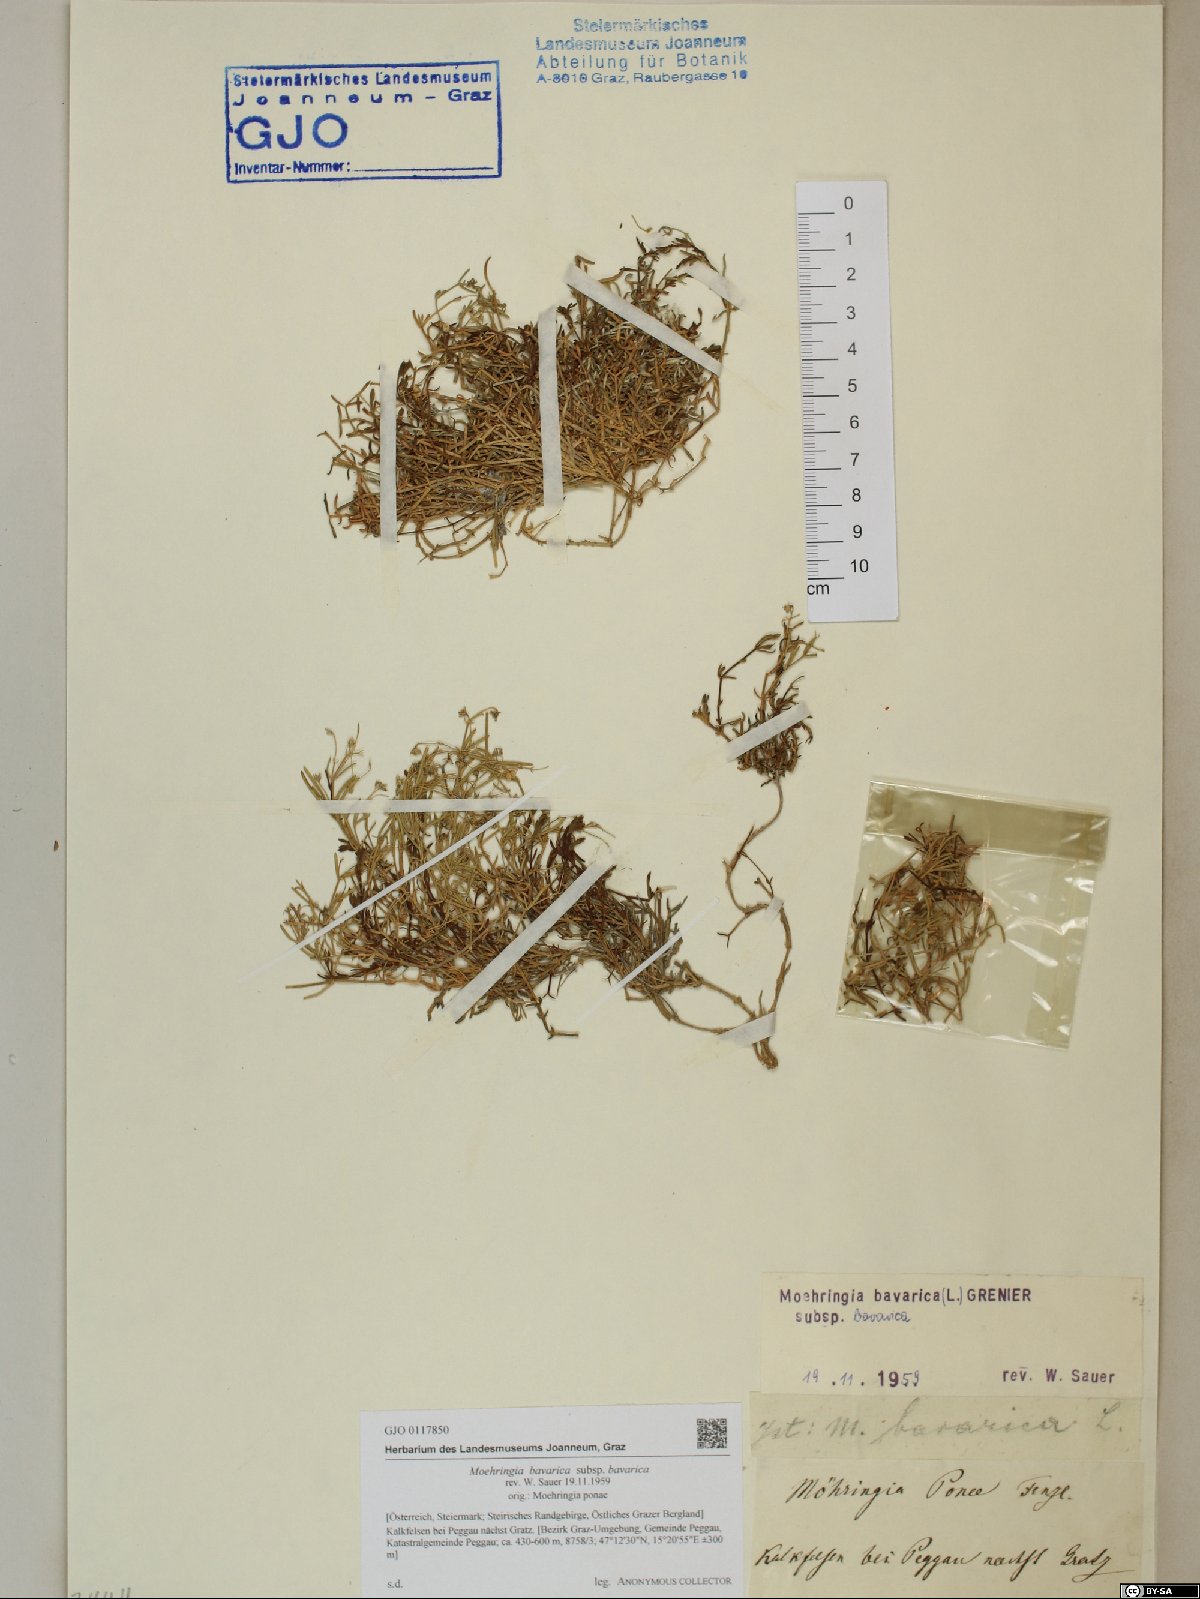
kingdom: Plantae
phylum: Tracheophyta
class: Magnoliopsida
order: Caryophyllales
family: Caryophyllaceae
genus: Moehringia
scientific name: Moehringia bavarica
